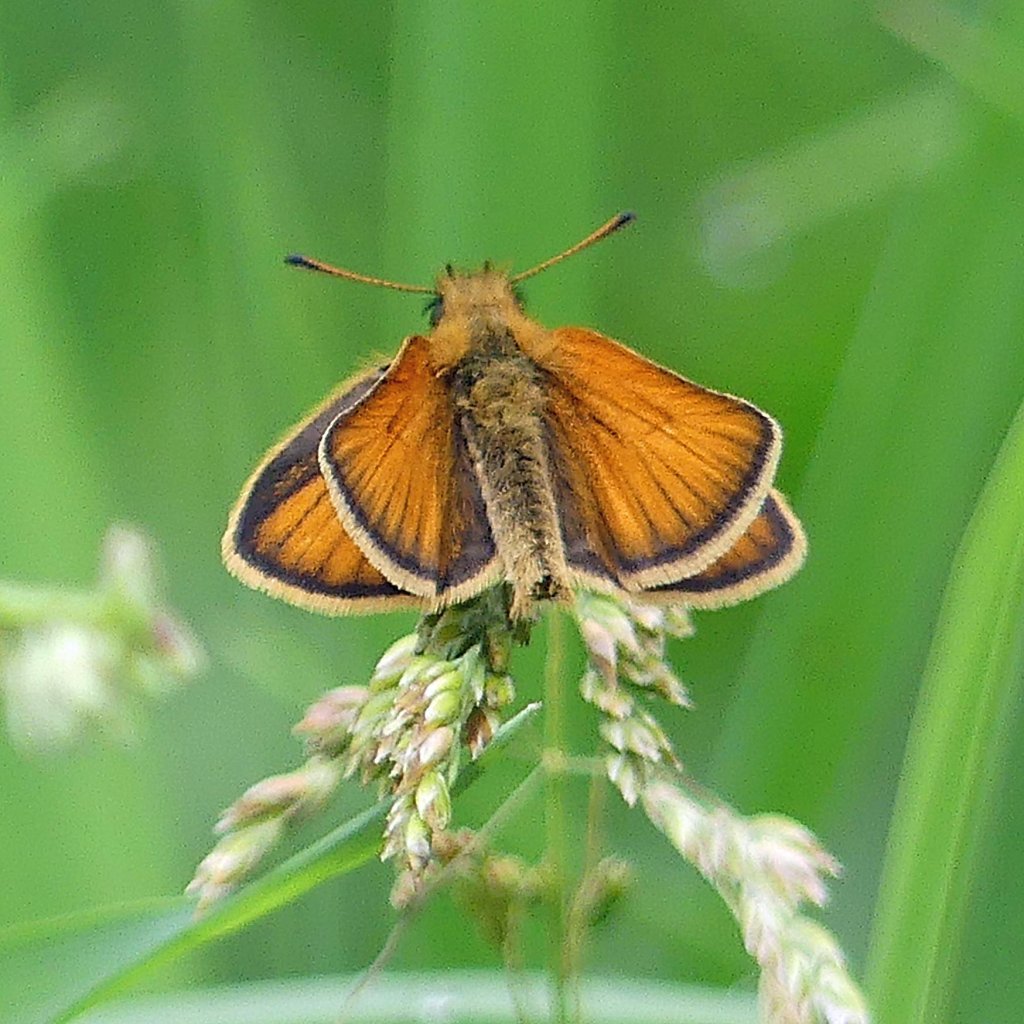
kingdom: Animalia
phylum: Arthropoda
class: Insecta
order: Lepidoptera
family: Hesperiidae
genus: Thymelicus
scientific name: Thymelicus lineola
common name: European Skipper
